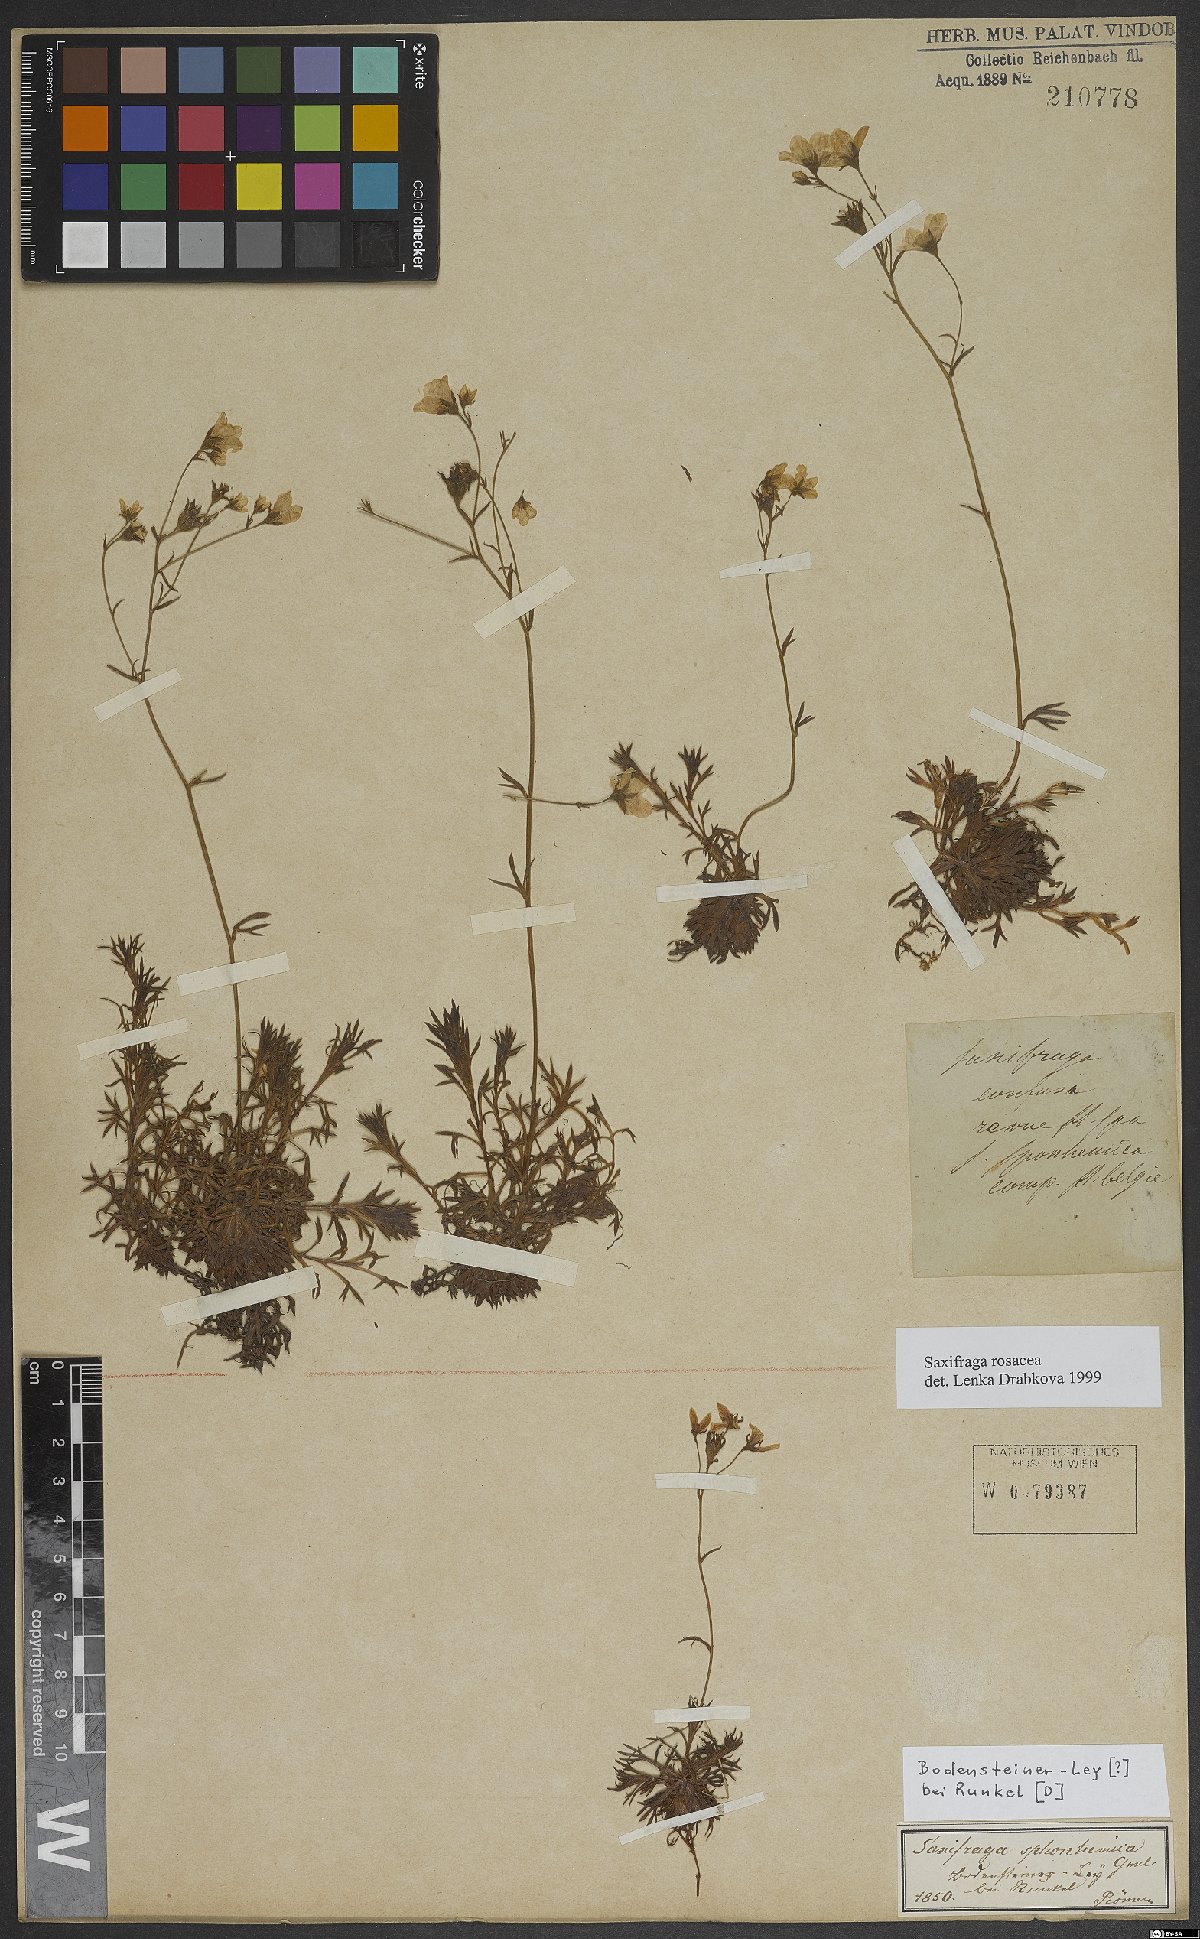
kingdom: Plantae
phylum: Tracheophyta
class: Magnoliopsida
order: Saxifragales
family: Saxifragaceae
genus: Saxifraga
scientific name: Saxifraga rosacea
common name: Irish saxifrage
